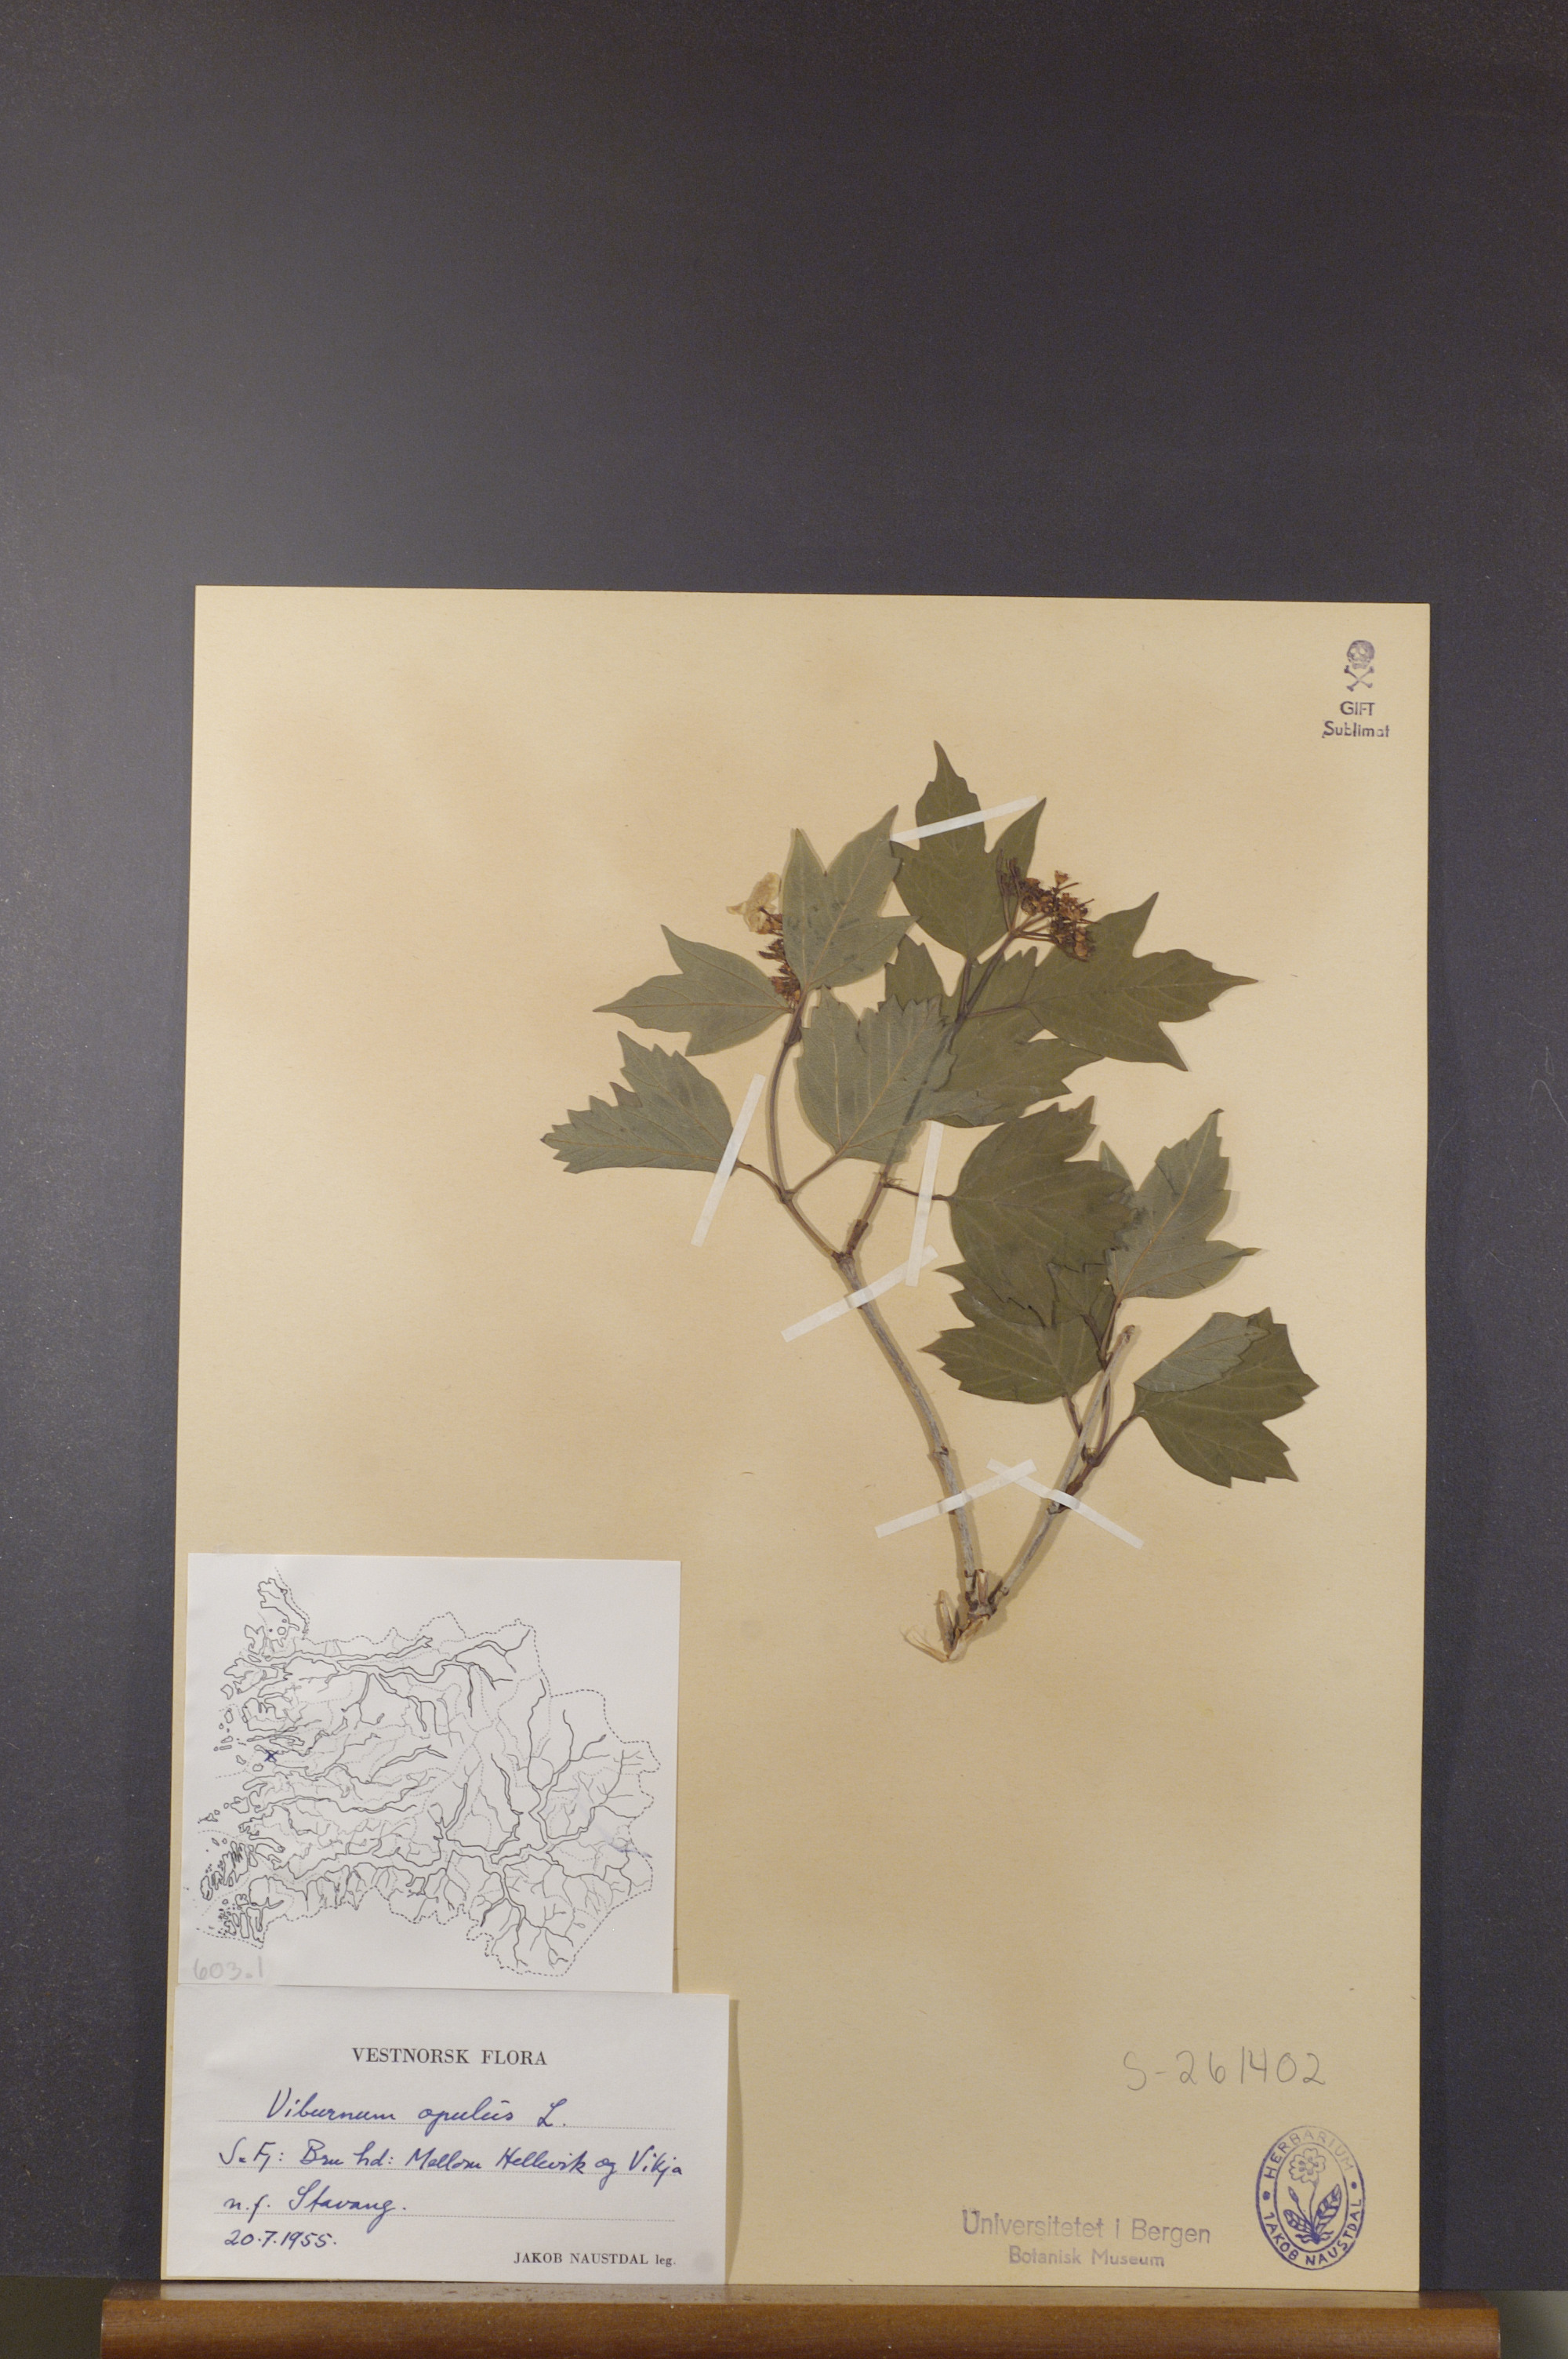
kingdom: Plantae
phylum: Tracheophyta
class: Magnoliopsida
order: Dipsacales
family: Viburnaceae
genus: Viburnum
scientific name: Viburnum opulus
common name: Guelder-rose
